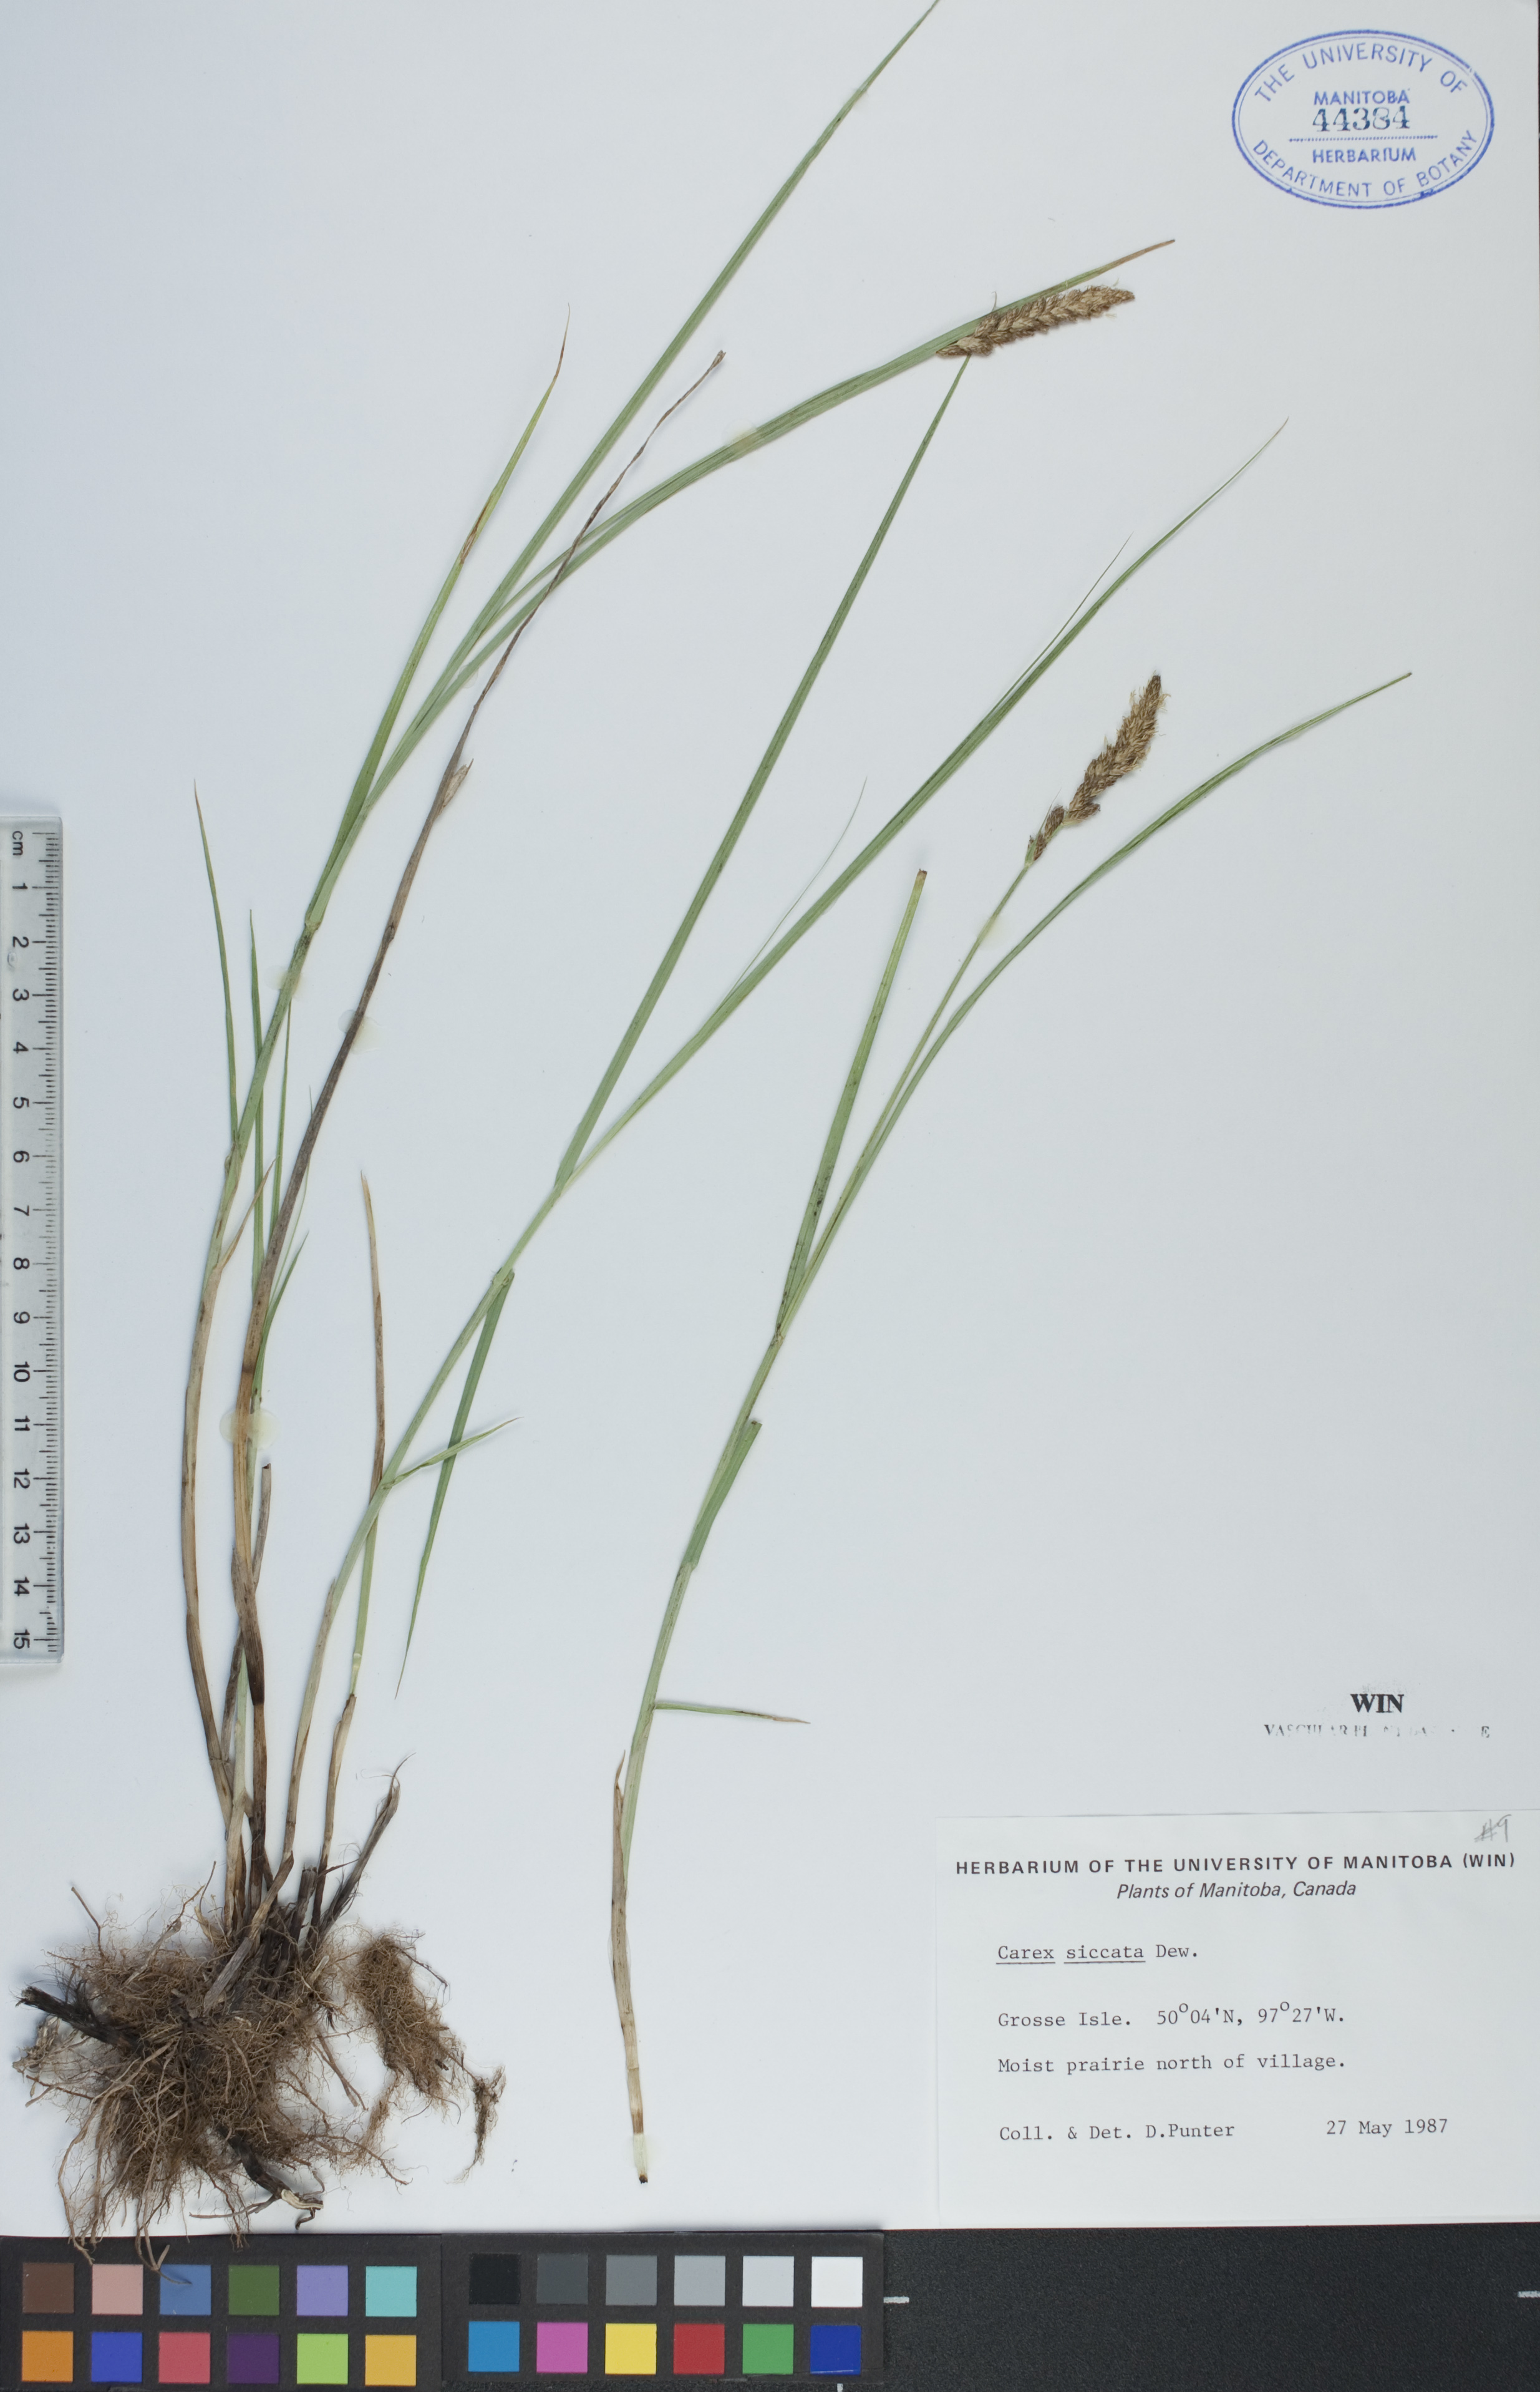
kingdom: Plantae
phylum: Tracheophyta
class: Liliopsida
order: Poales
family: Cyperaceae
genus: Carex
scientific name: Carex siccata
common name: Dry sedge
